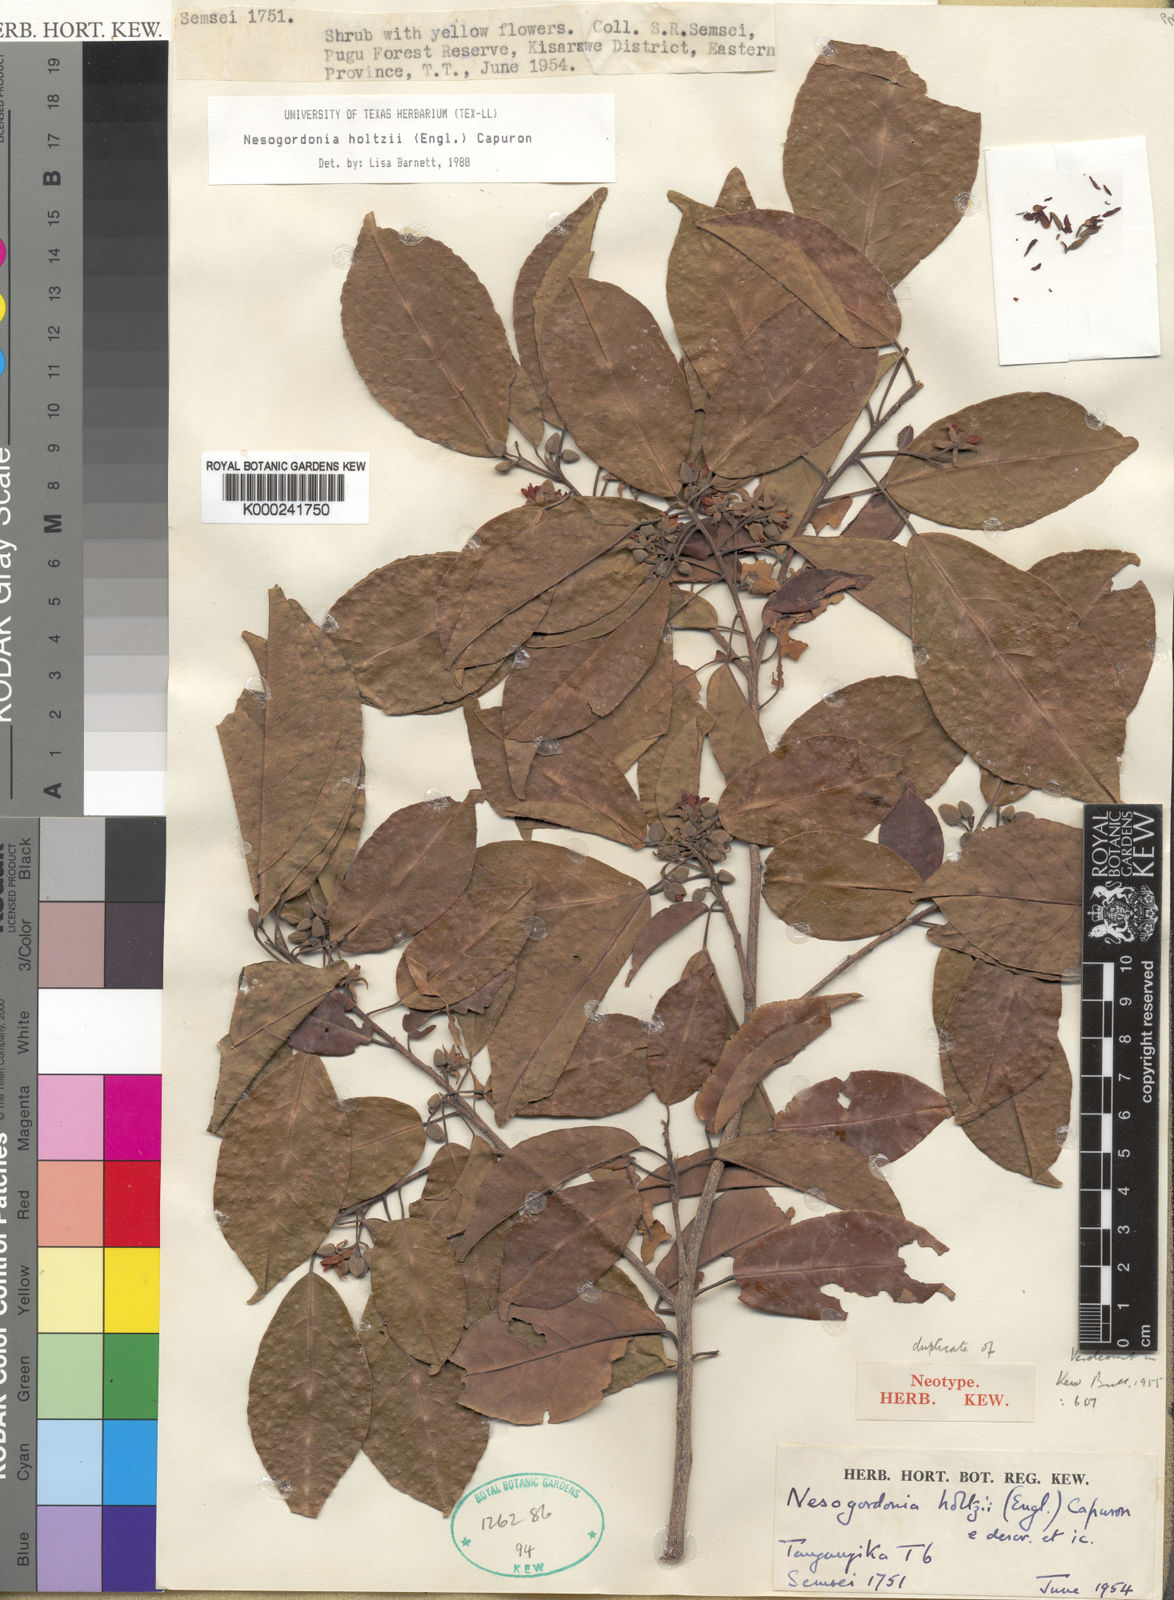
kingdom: Plantae
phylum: Tracheophyta
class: Magnoliopsida
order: Malvales
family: Malvaceae
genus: Nesogordonia
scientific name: Nesogordonia holtzii
